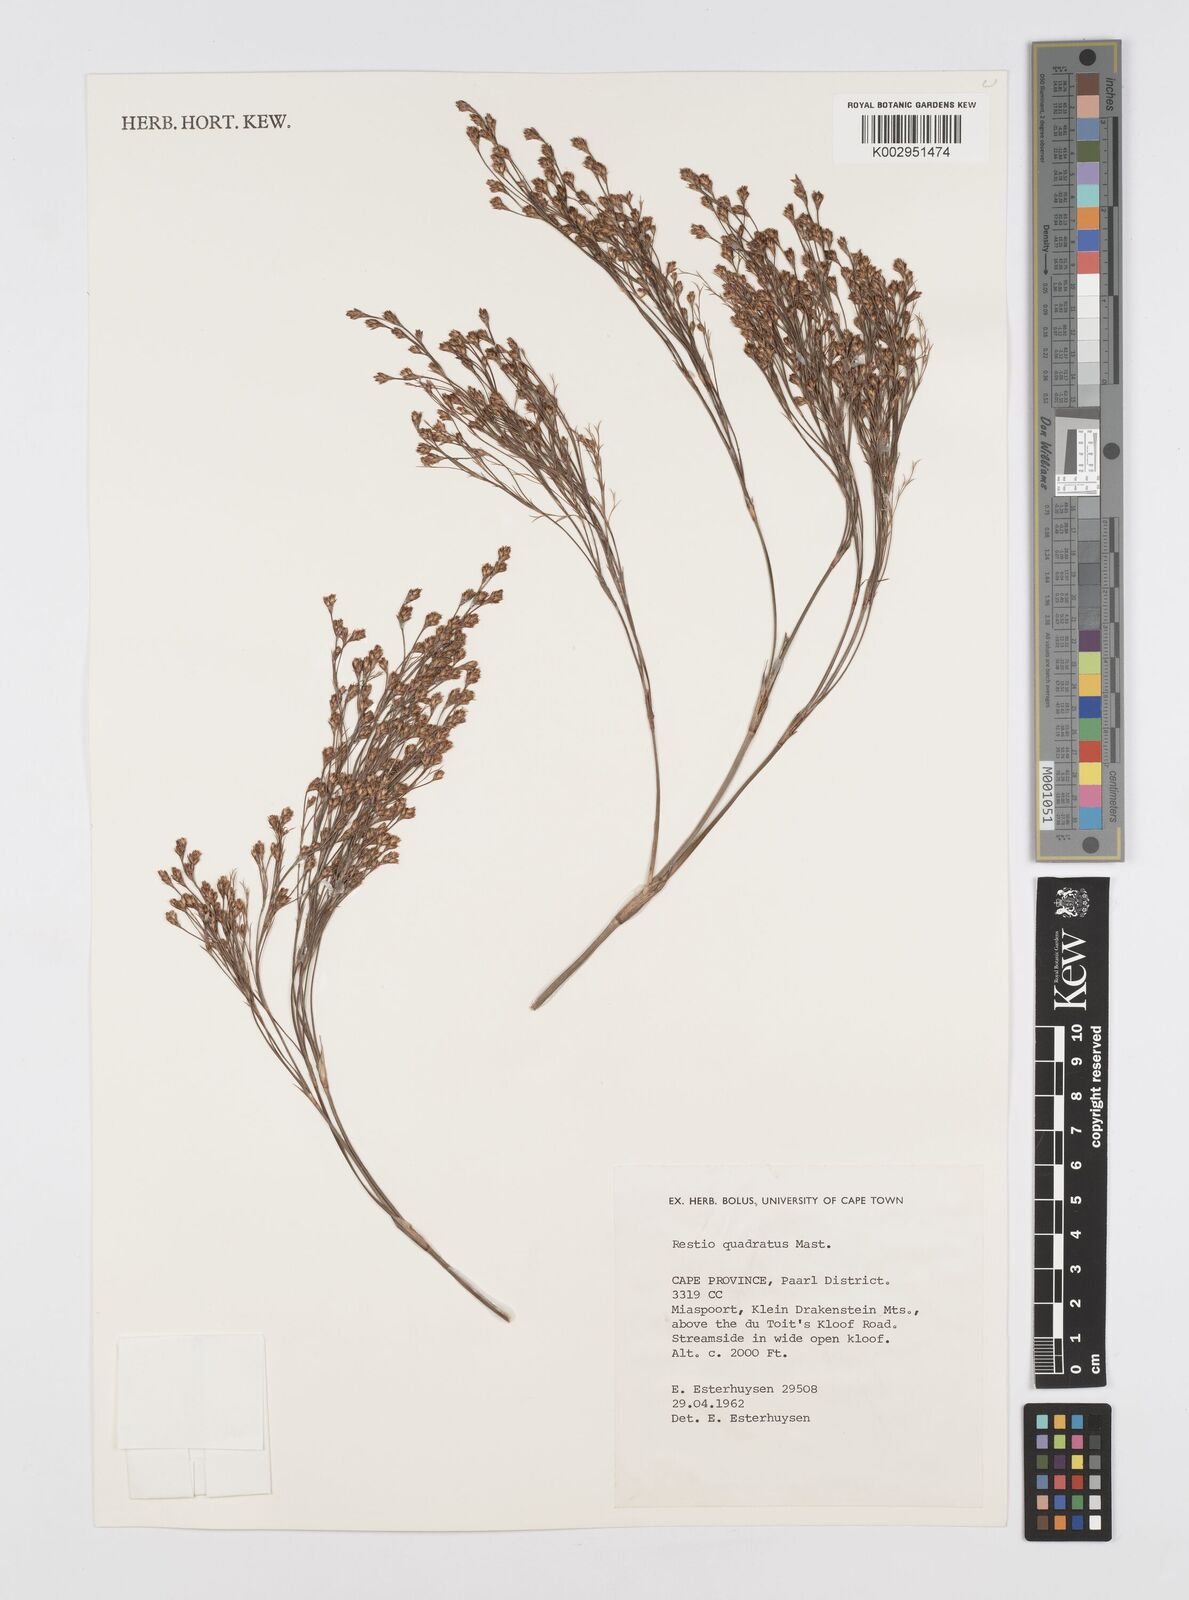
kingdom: Plantae
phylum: Tracheophyta
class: Liliopsida
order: Poales
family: Restionaceae
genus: Restio
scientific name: Restio quadratus
